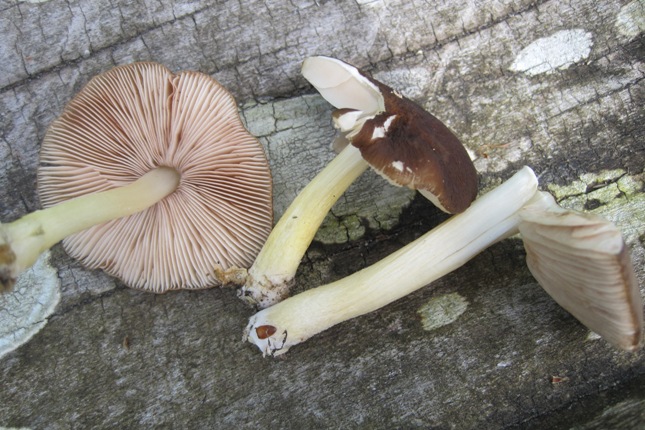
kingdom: Fungi
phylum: Basidiomycota
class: Agaricomycetes
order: Agaricales
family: Pluteaceae
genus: Pluteus
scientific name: Pluteus romellii
